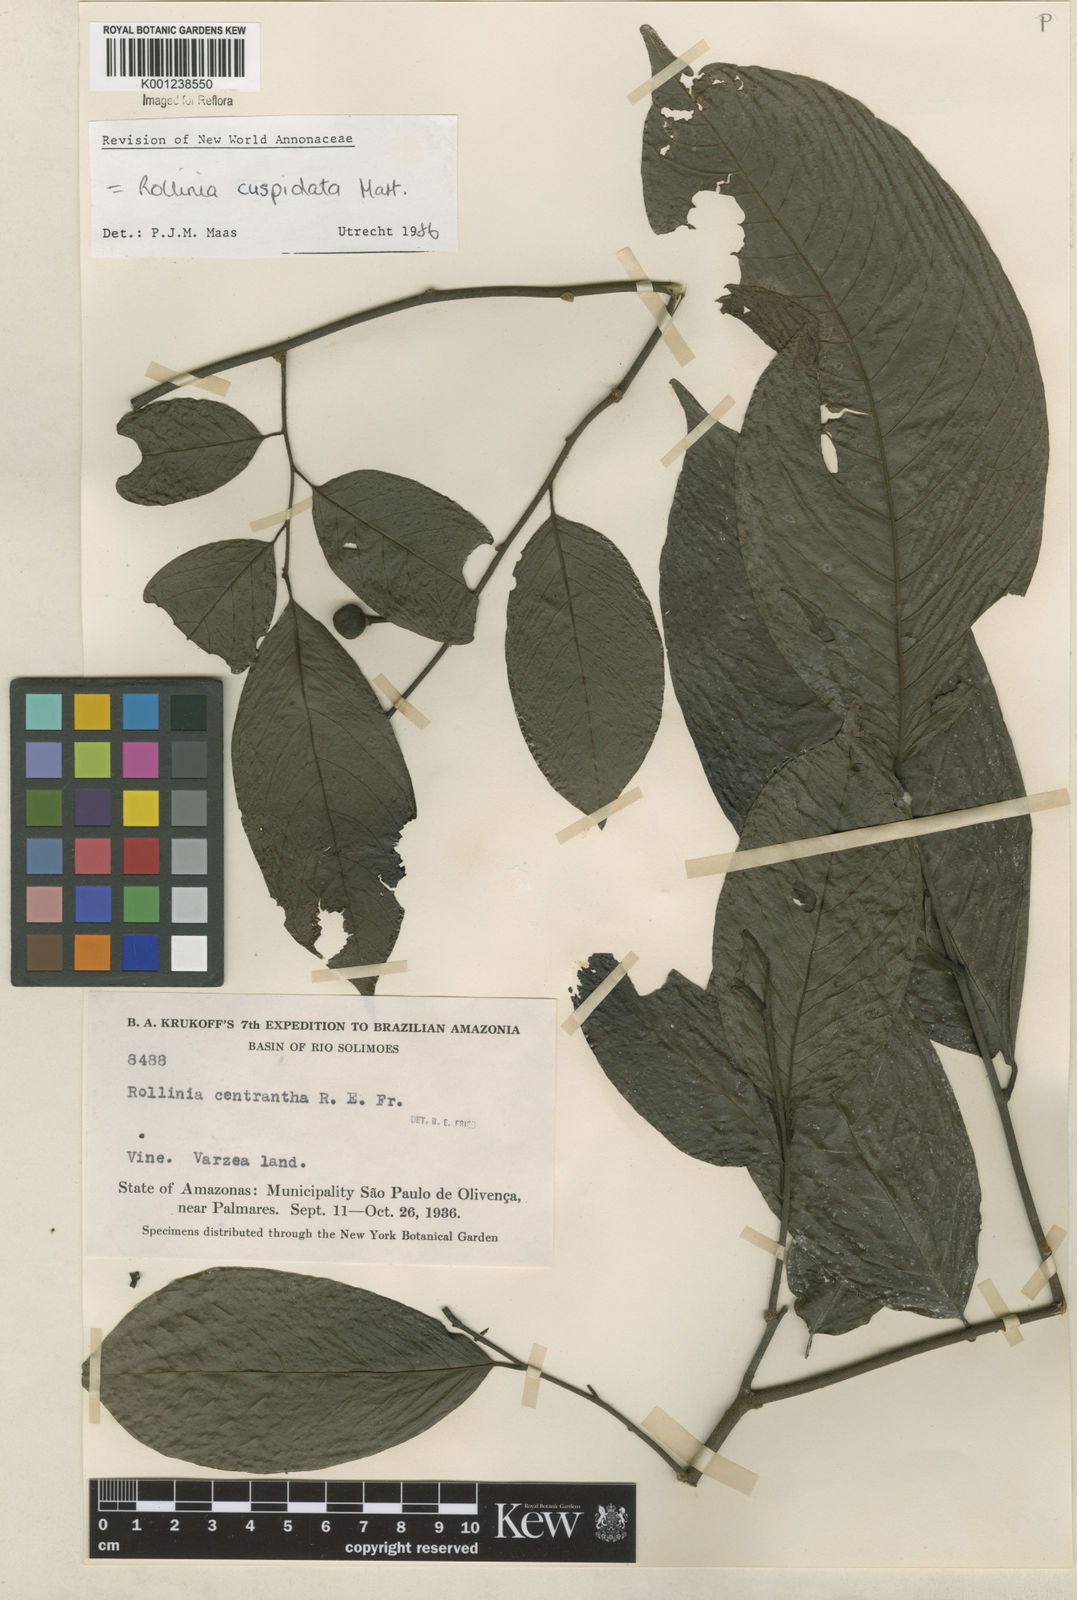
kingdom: Plantae
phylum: Tracheophyta
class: Magnoliopsida
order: Magnoliales
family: Annonaceae
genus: Annona
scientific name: Annona cuspidata
